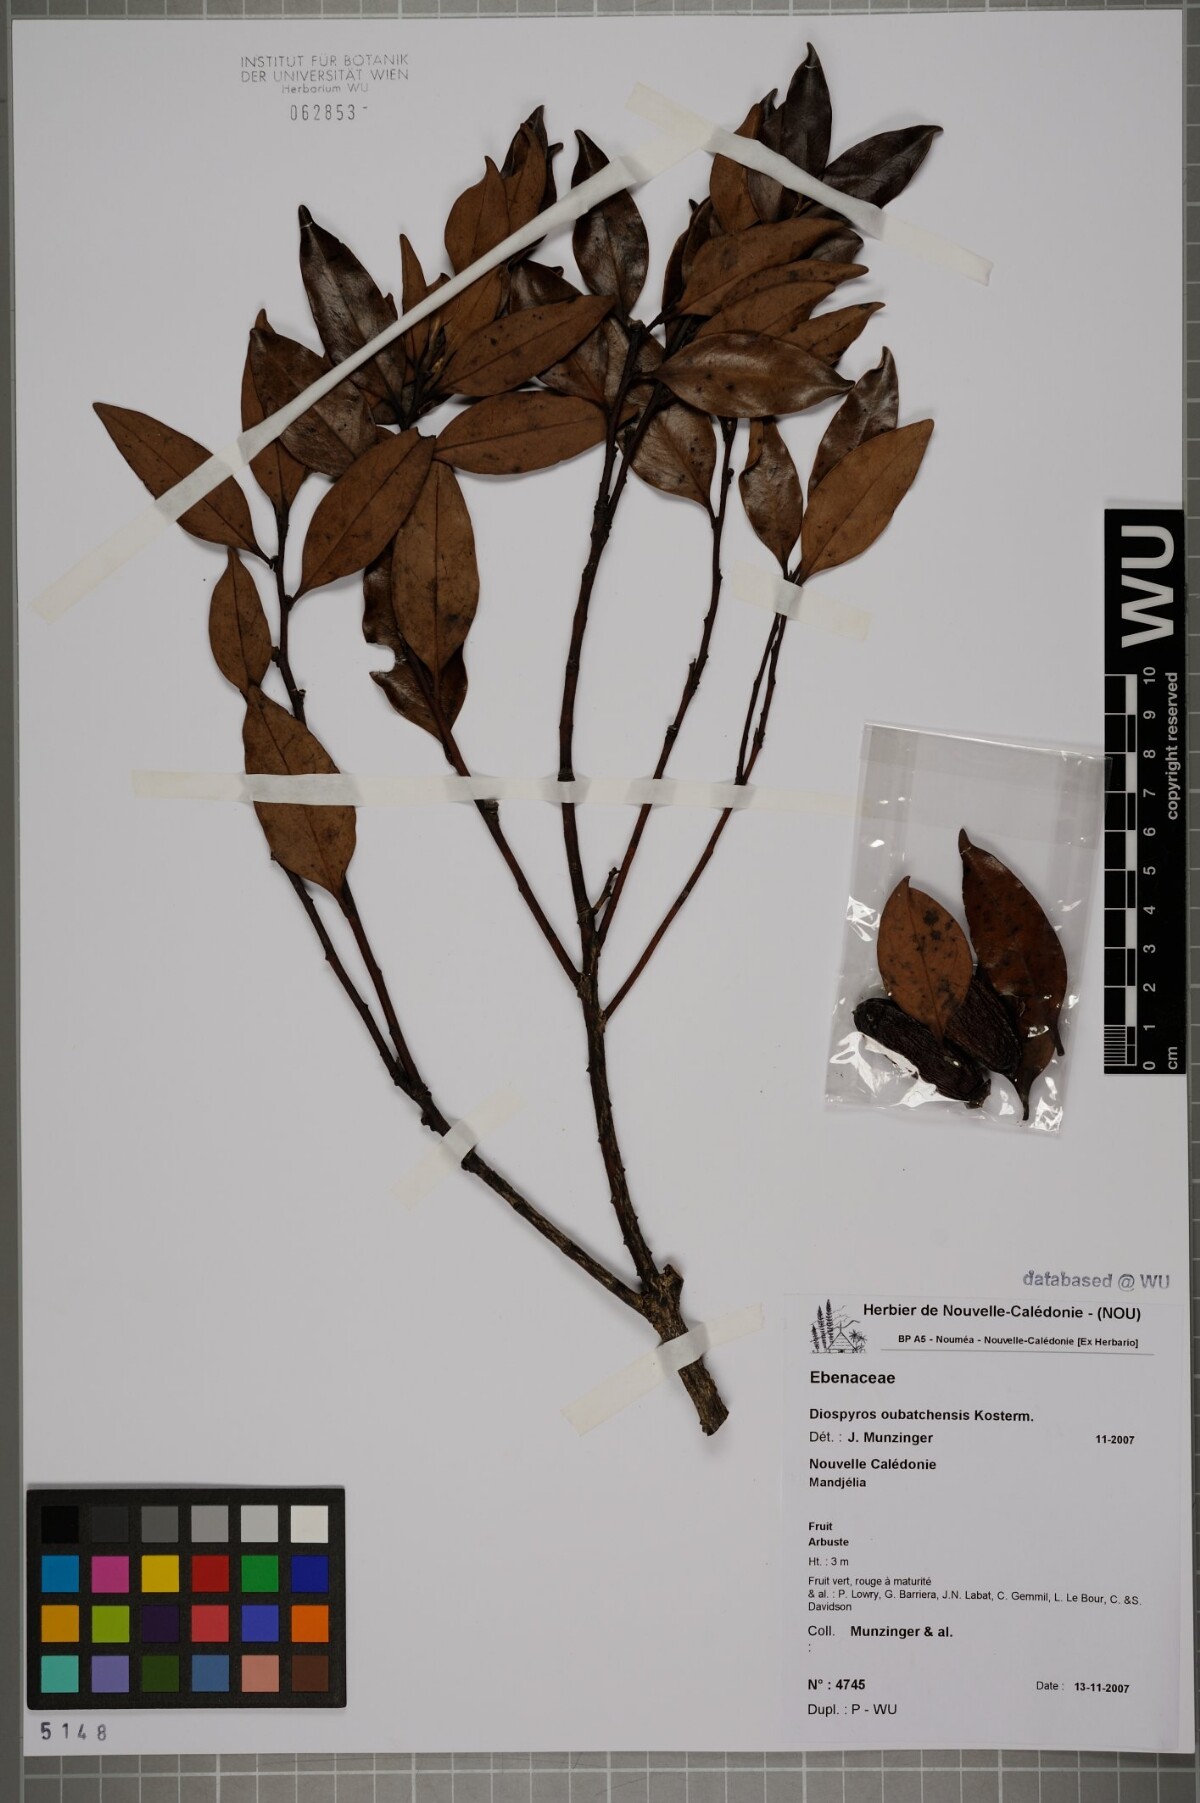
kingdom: Plantae
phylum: Tracheophyta
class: Magnoliopsida
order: Ericales
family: Ebenaceae
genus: Diospyros
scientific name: Diospyros oubatchensis
